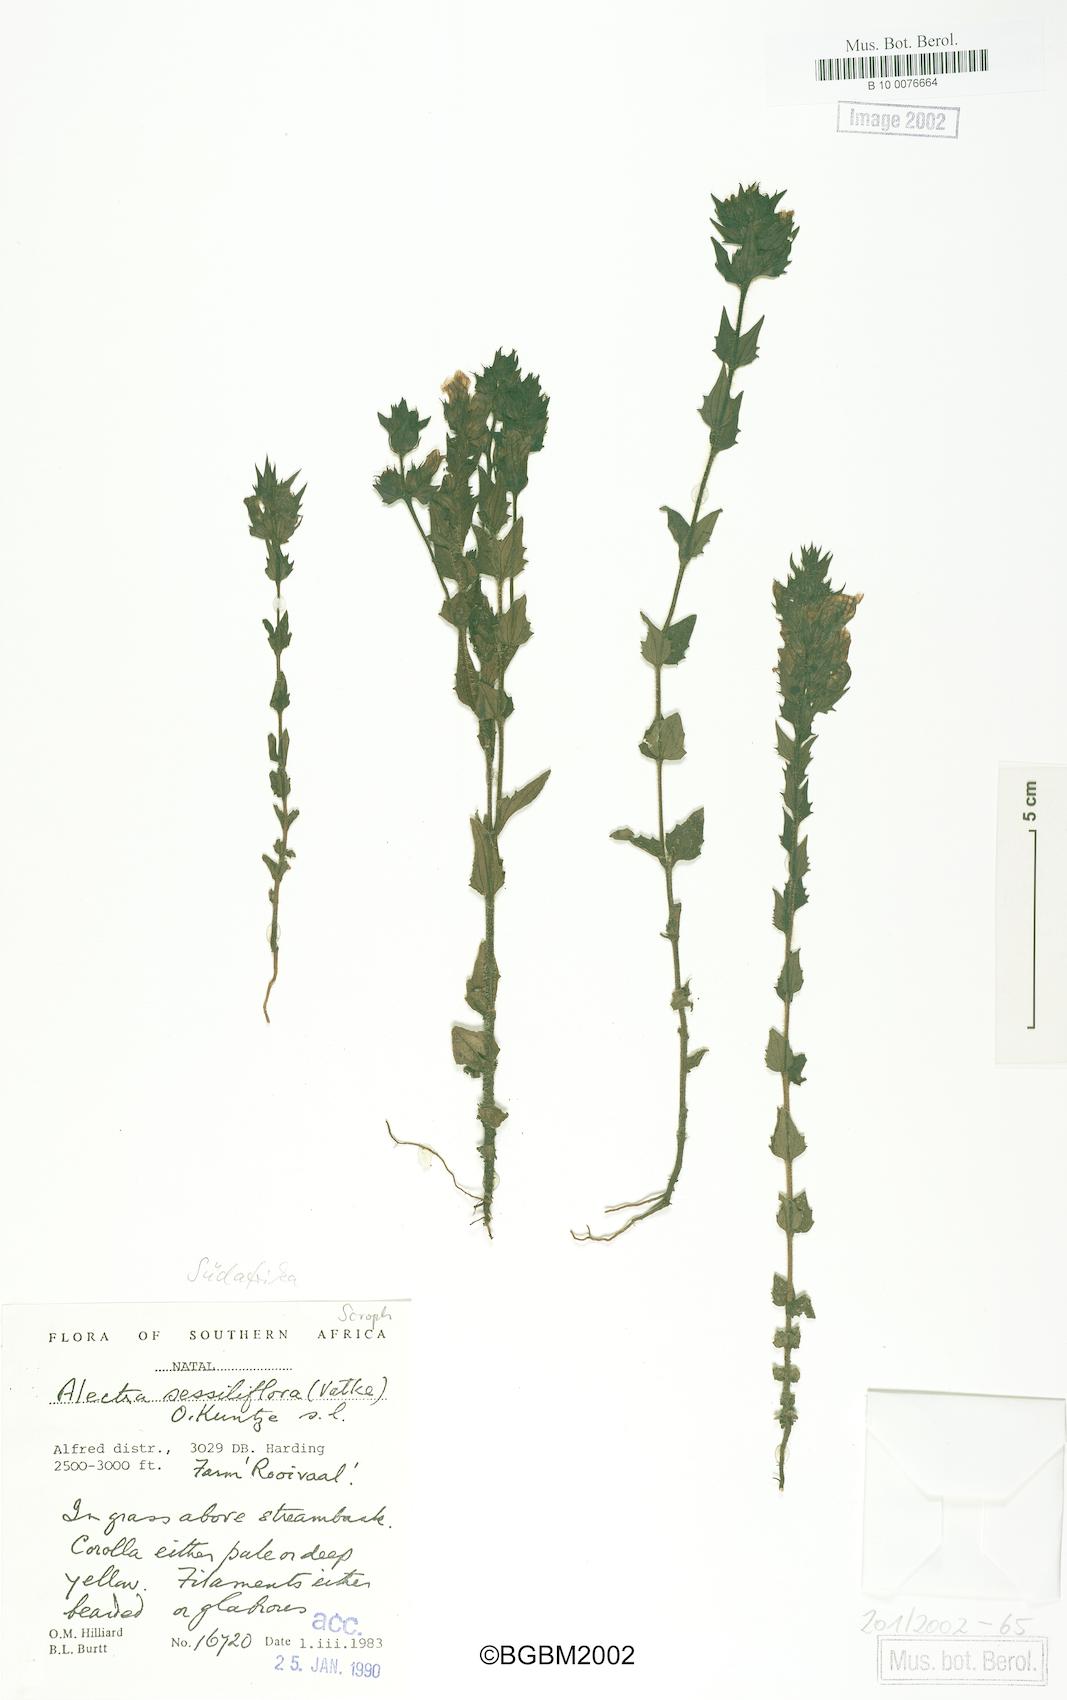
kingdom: Plantae
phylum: Tracheophyta
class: Magnoliopsida
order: Lamiales
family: Orobanchaceae
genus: Alectra
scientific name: Alectra sessiliflora
